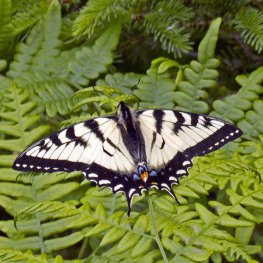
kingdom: Animalia
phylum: Arthropoda
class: Insecta
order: Lepidoptera
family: Papilionidae
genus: Pterourus
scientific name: Pterourus canadensis
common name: Canadian Tiger Swallowtail
